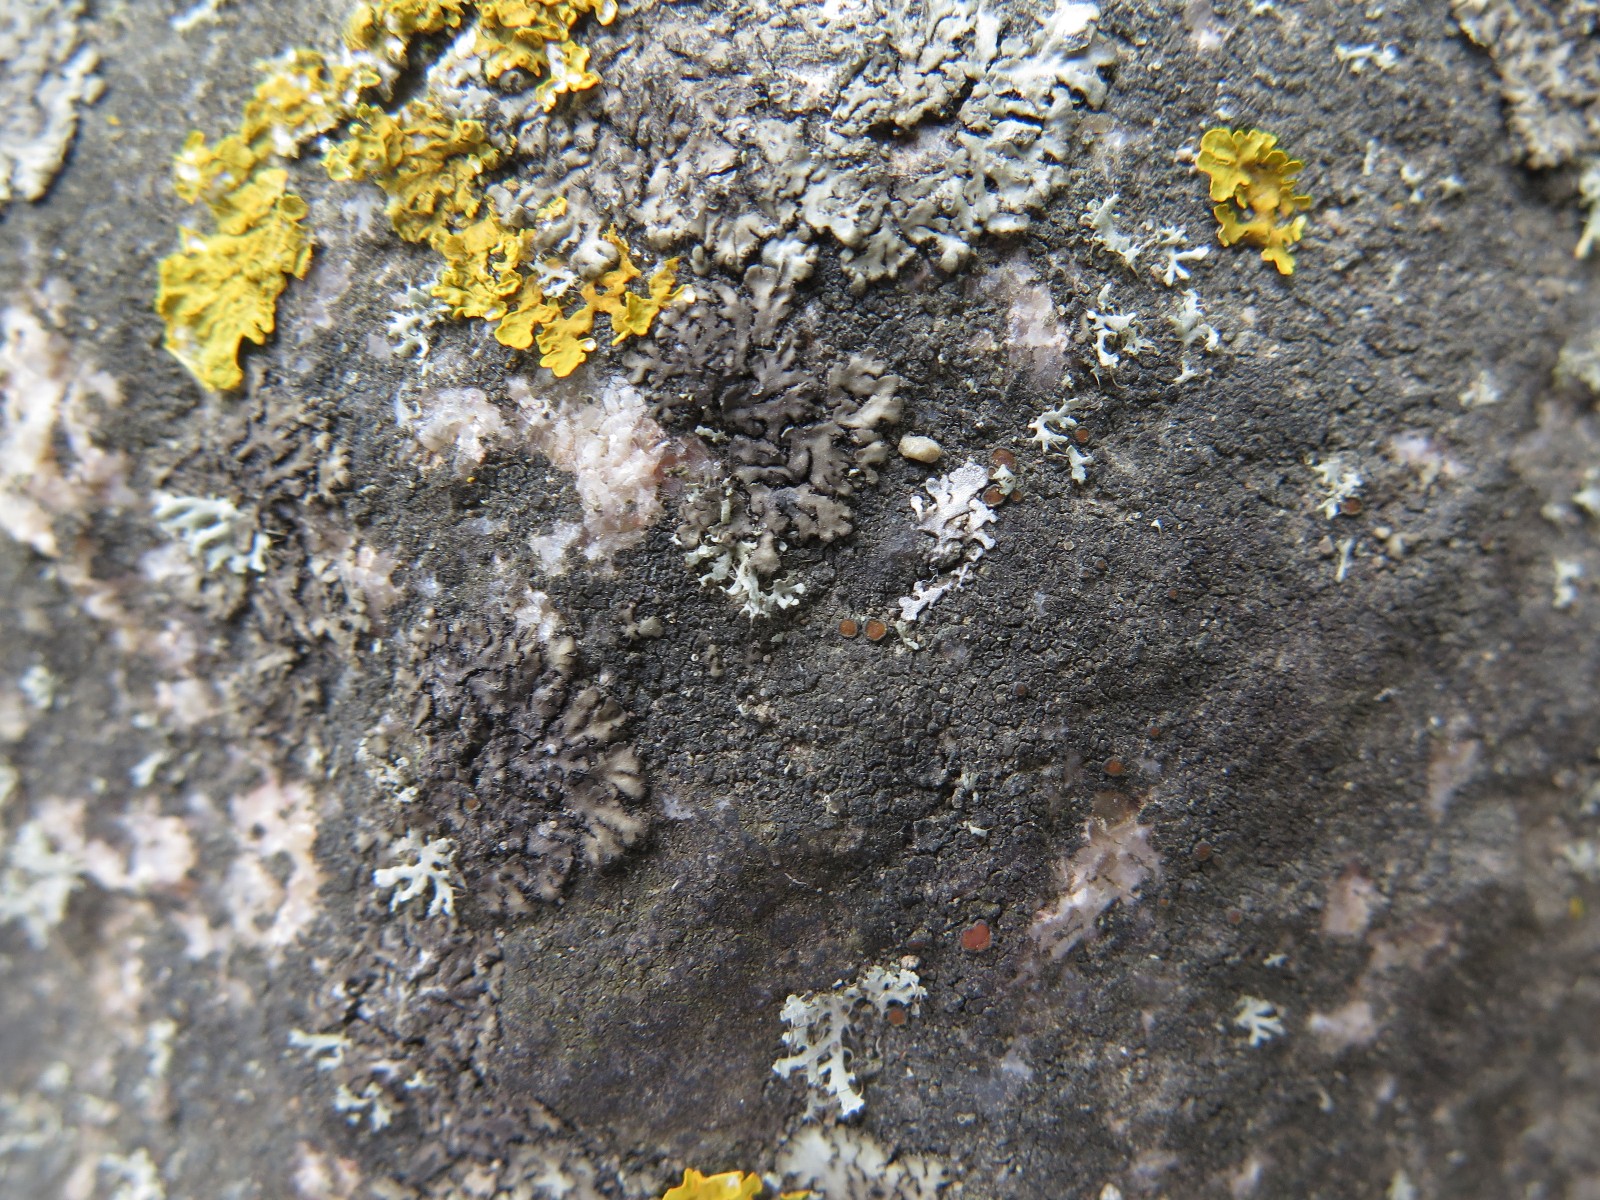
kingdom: Fungi
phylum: Ascomycota
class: Lecanoromycetes
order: Teloschistales
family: Teloschistaceae
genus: Caloplaca
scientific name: Caloplaca chlorina
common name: mørkskællet orangelav
